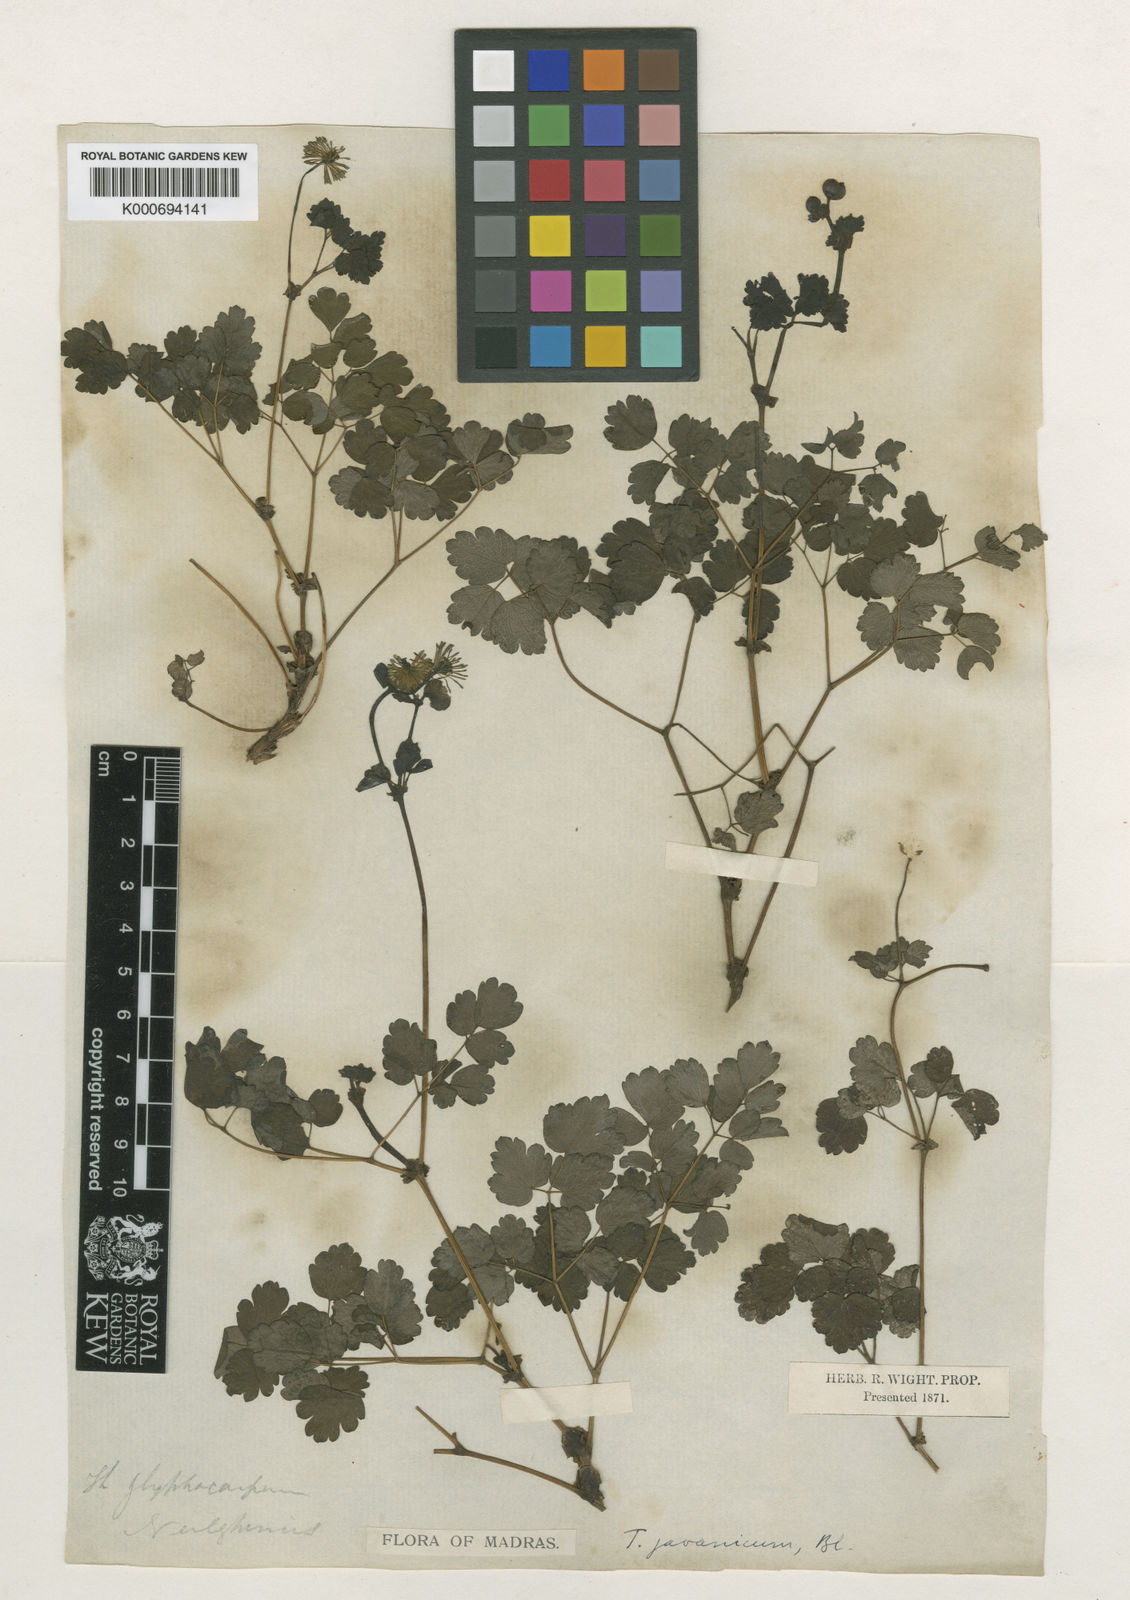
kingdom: Plantae
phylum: Tracheophyta
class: Magnoliopsida
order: Ranunculales
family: Ranunculaceae
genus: Thalictrum
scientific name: Thalictrum javanicum
